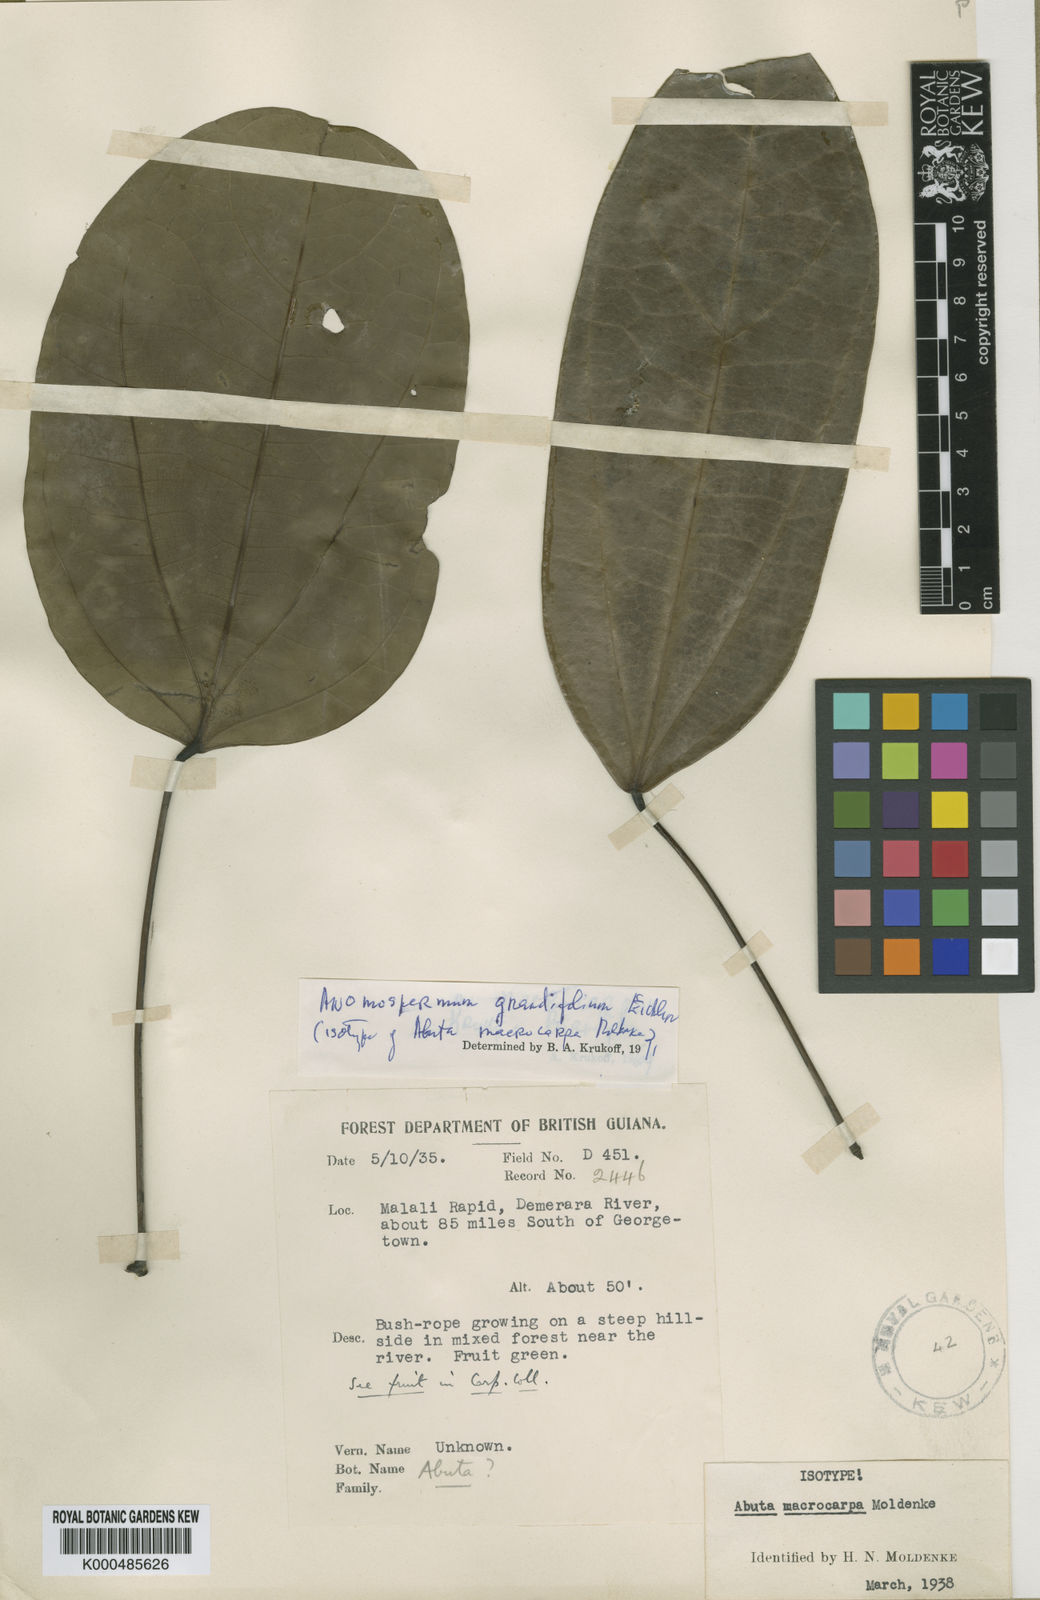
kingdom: Plantae
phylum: Tracheophyta
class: Magnoliopsida
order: Ranunculales
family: Menispermaceae
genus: Elissarrhena
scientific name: Elissarrhena longipes
